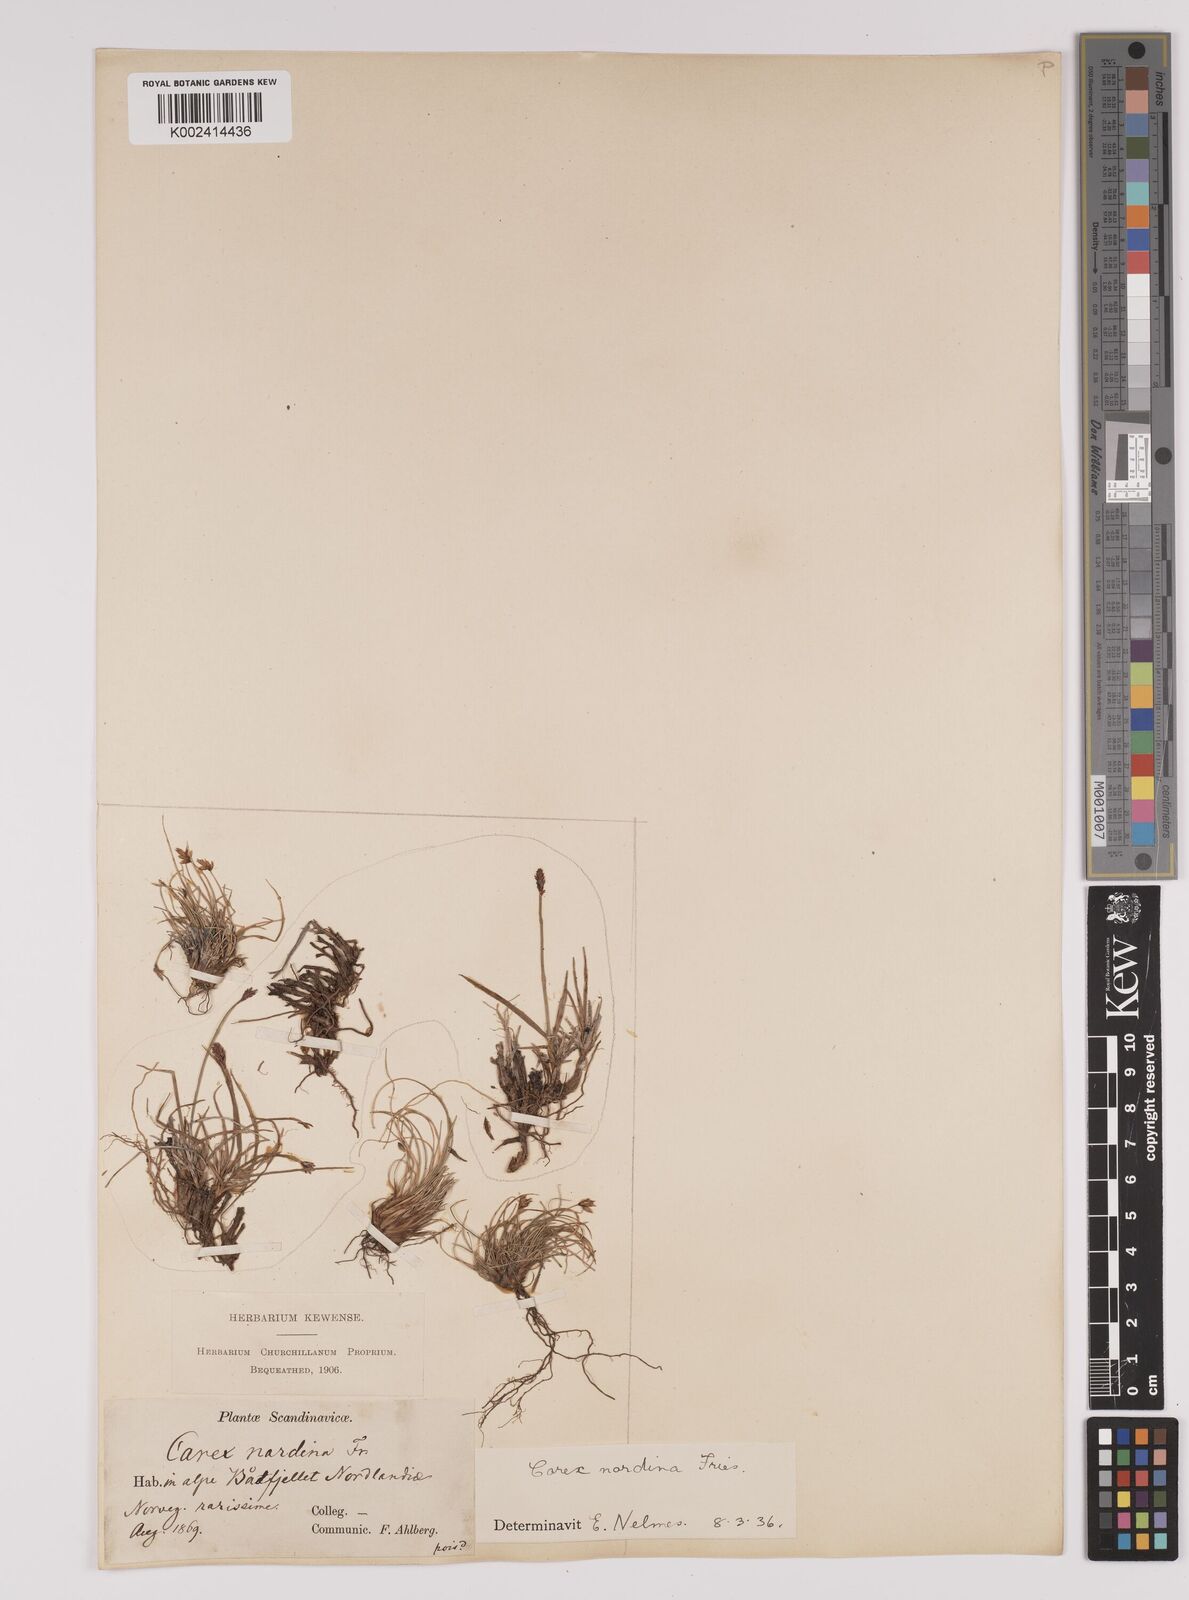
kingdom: Plantae
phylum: Tracheophyta
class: Liliopsida
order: Poales
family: Cyperaceae
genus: Carex
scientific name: Carex nardina
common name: Nard sedge
